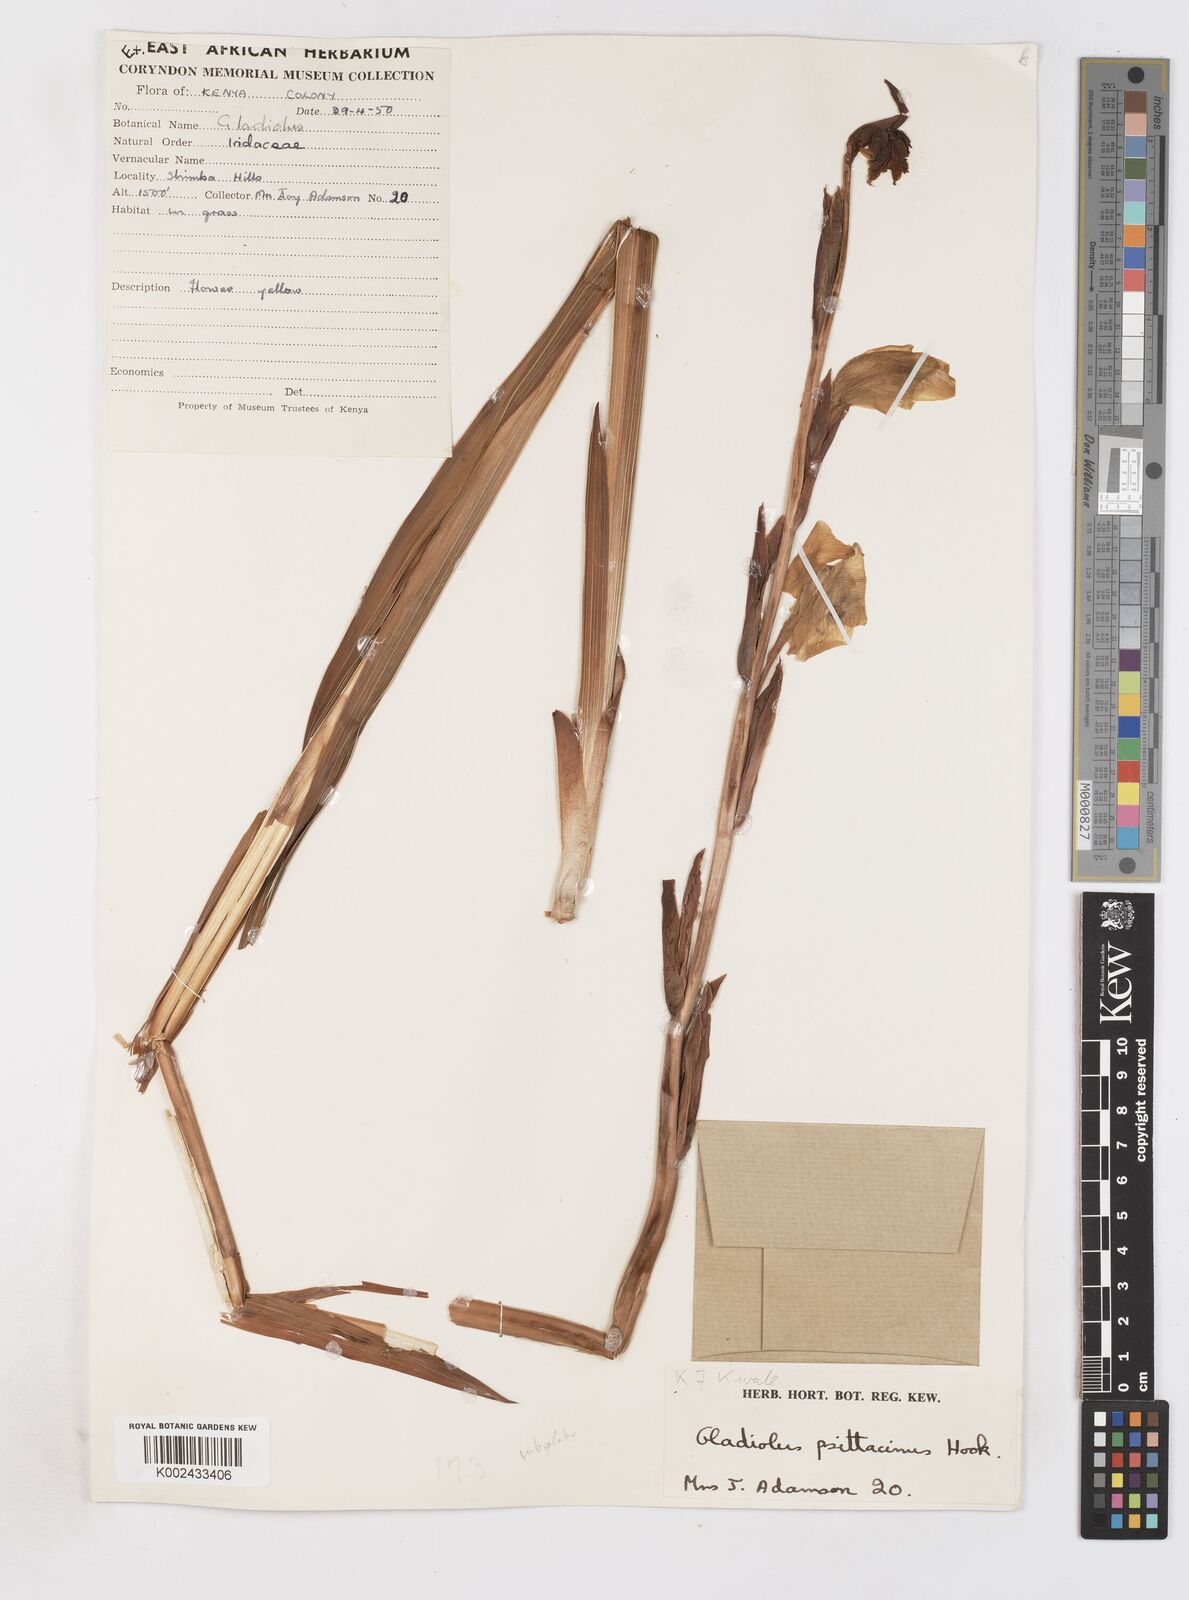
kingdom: Plantae
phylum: Tracheophyta
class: Liliopsida
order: Asparagales
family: Iridaceae
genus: Gladiolus
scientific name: Gladiolus dalenii
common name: Cornflag
